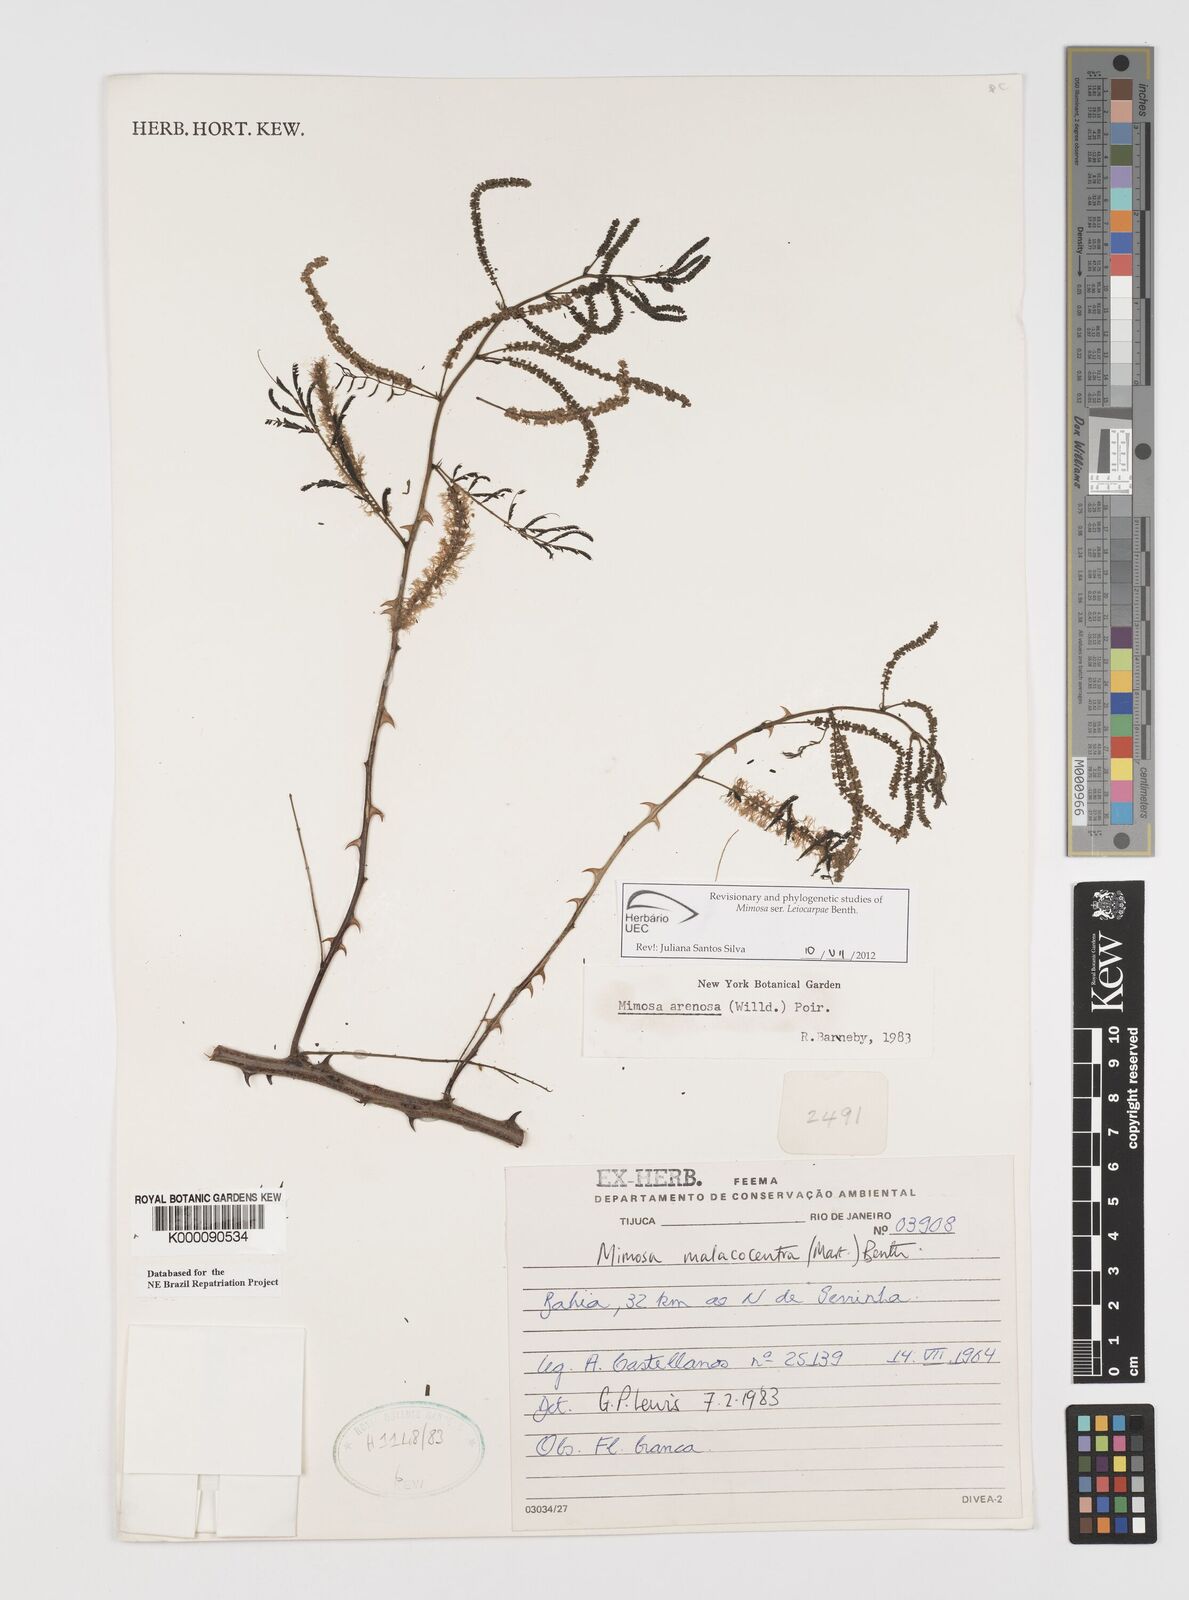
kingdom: Plantae
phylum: Tracheophyta
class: Magnoliopsida
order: Fabales
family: Fabaceae
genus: Mimosa
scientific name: Mimosa arenosa
